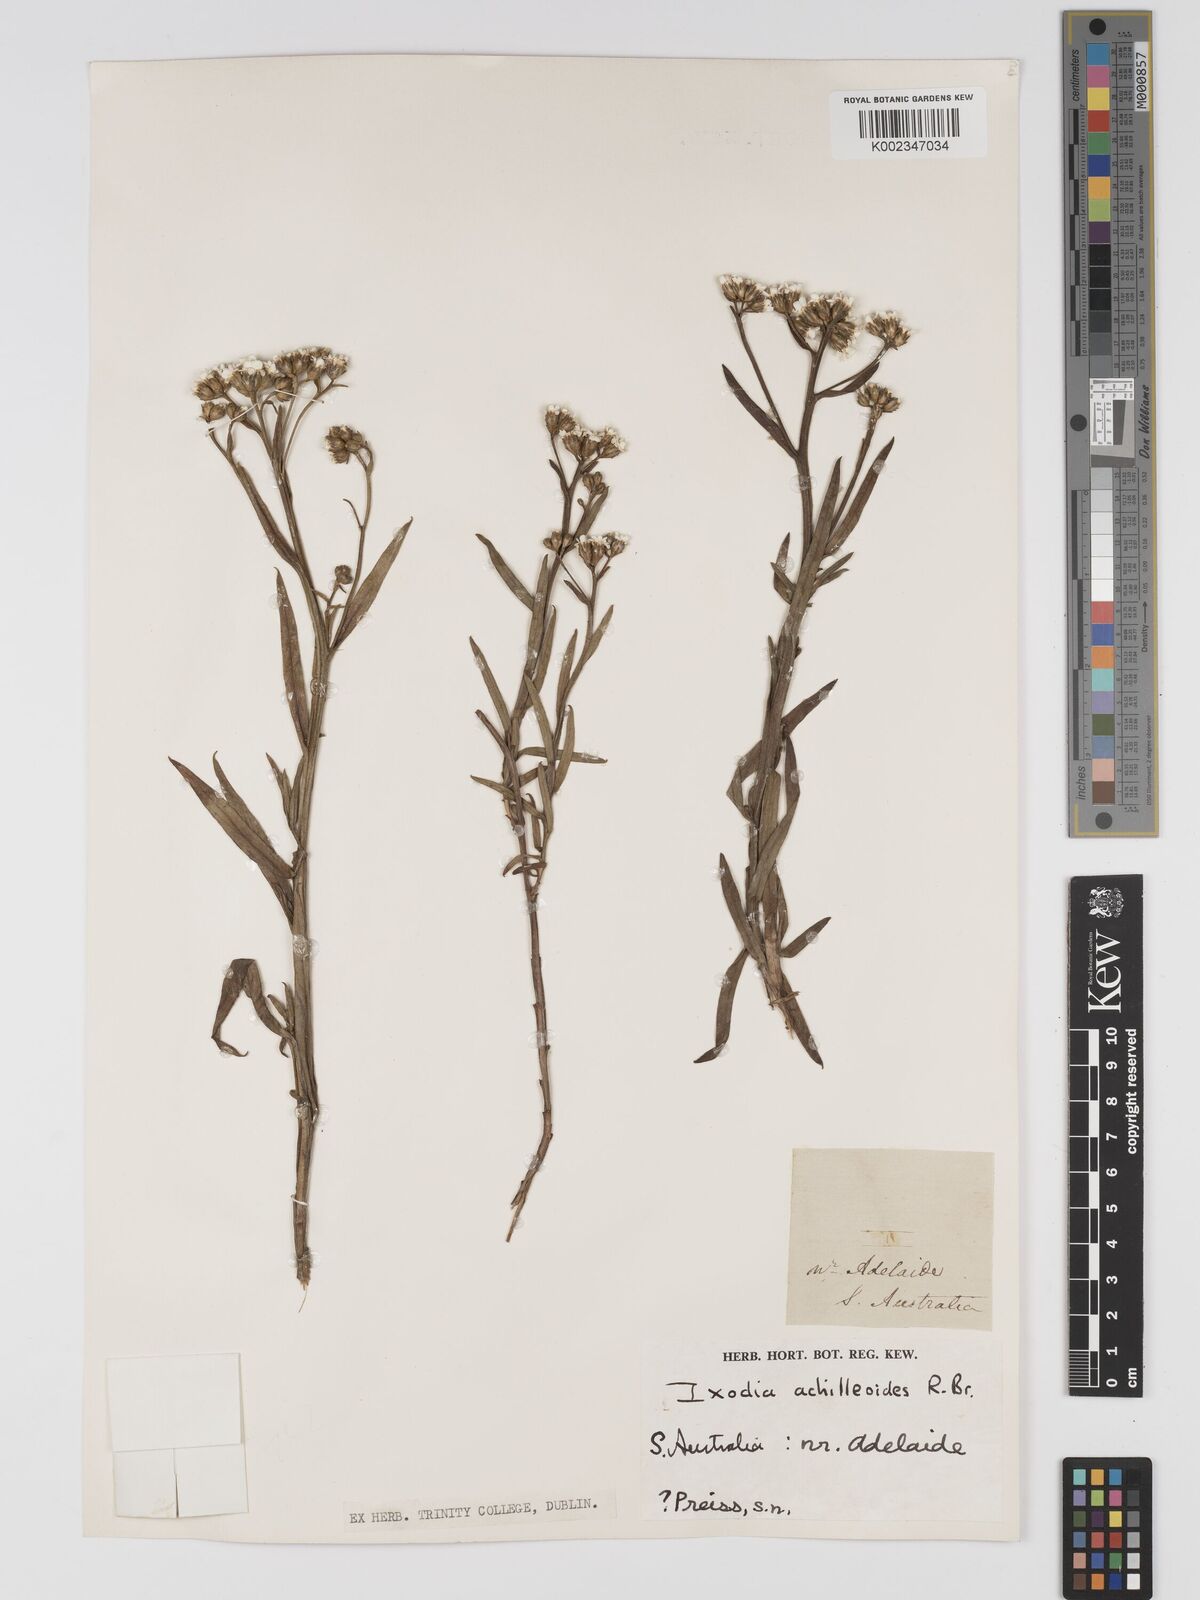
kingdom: Plantae
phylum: Tracheophyta
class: Magnoliopsida
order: Asterales
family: Asteraceae
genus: Ixodia
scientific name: Ixodia achilleoides
